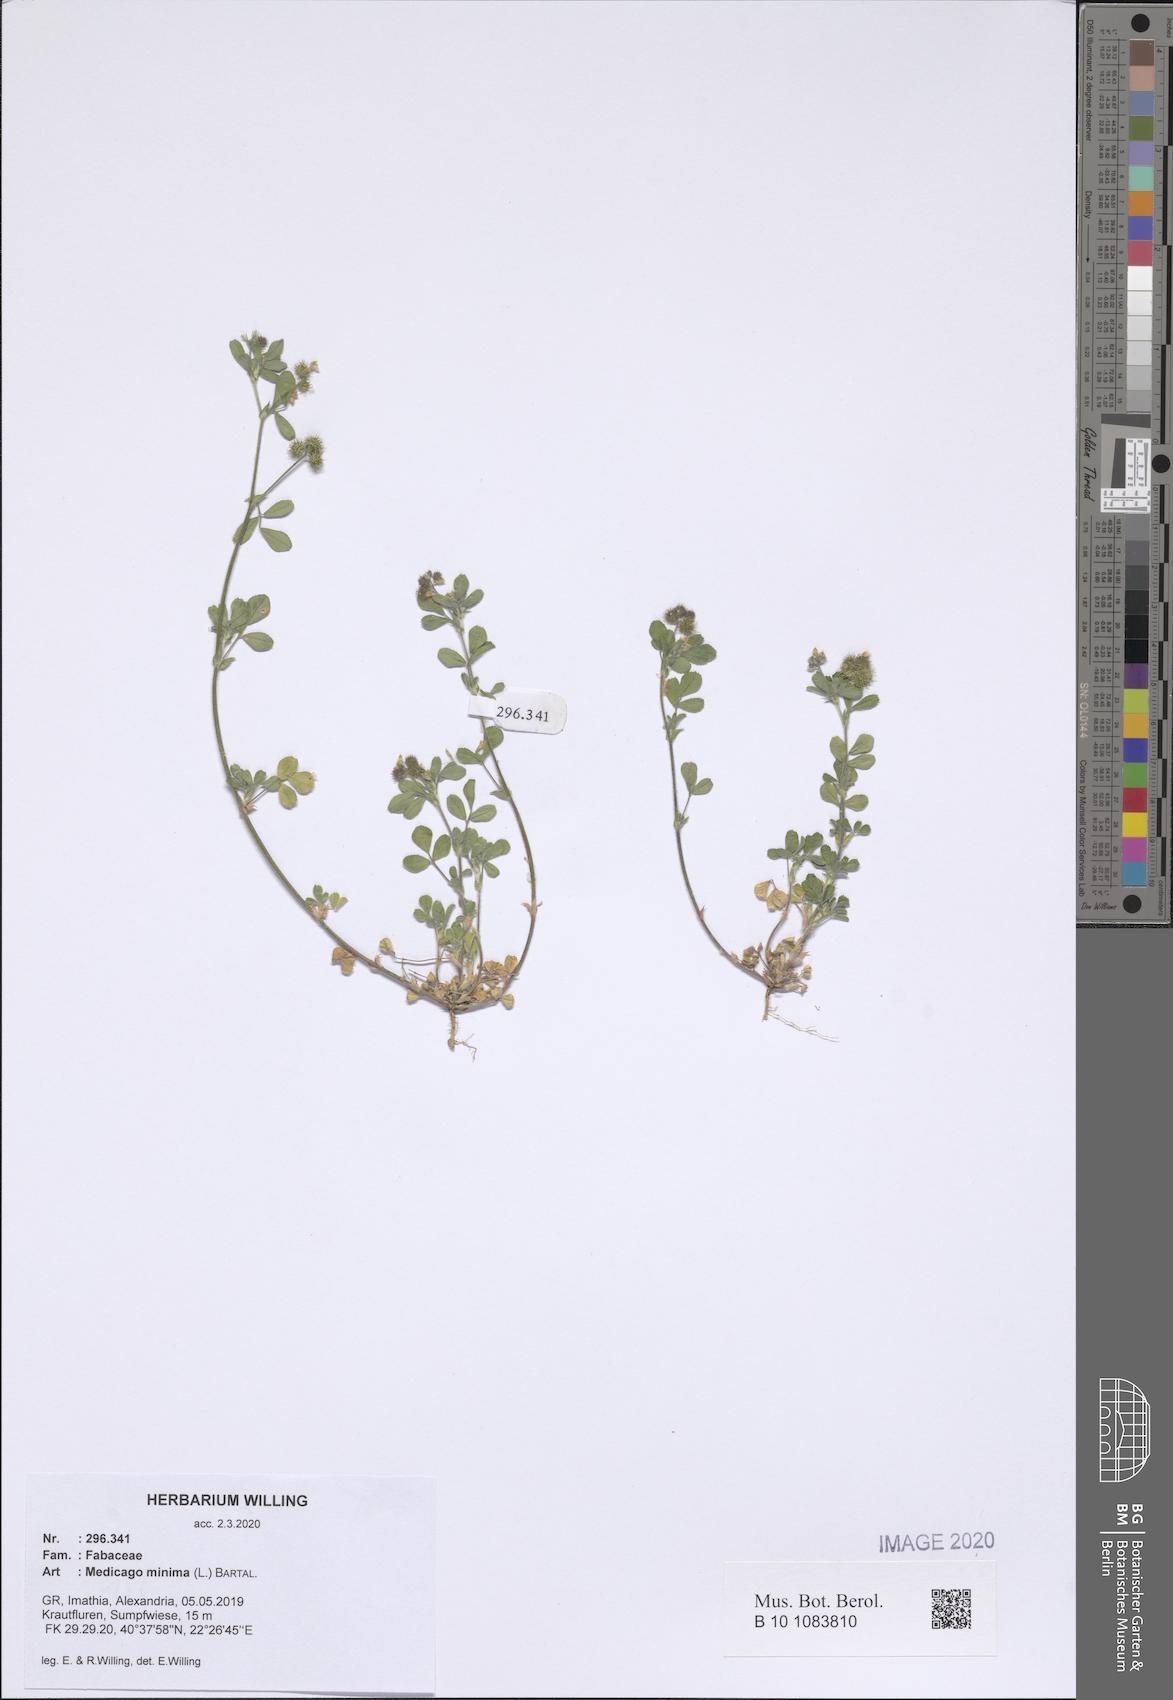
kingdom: Plantae
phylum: Tracheophyta
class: Magnoliopsida
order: Fabales
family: Fabaceae
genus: Medicago
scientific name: Medicago minima
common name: Little bur-clover
